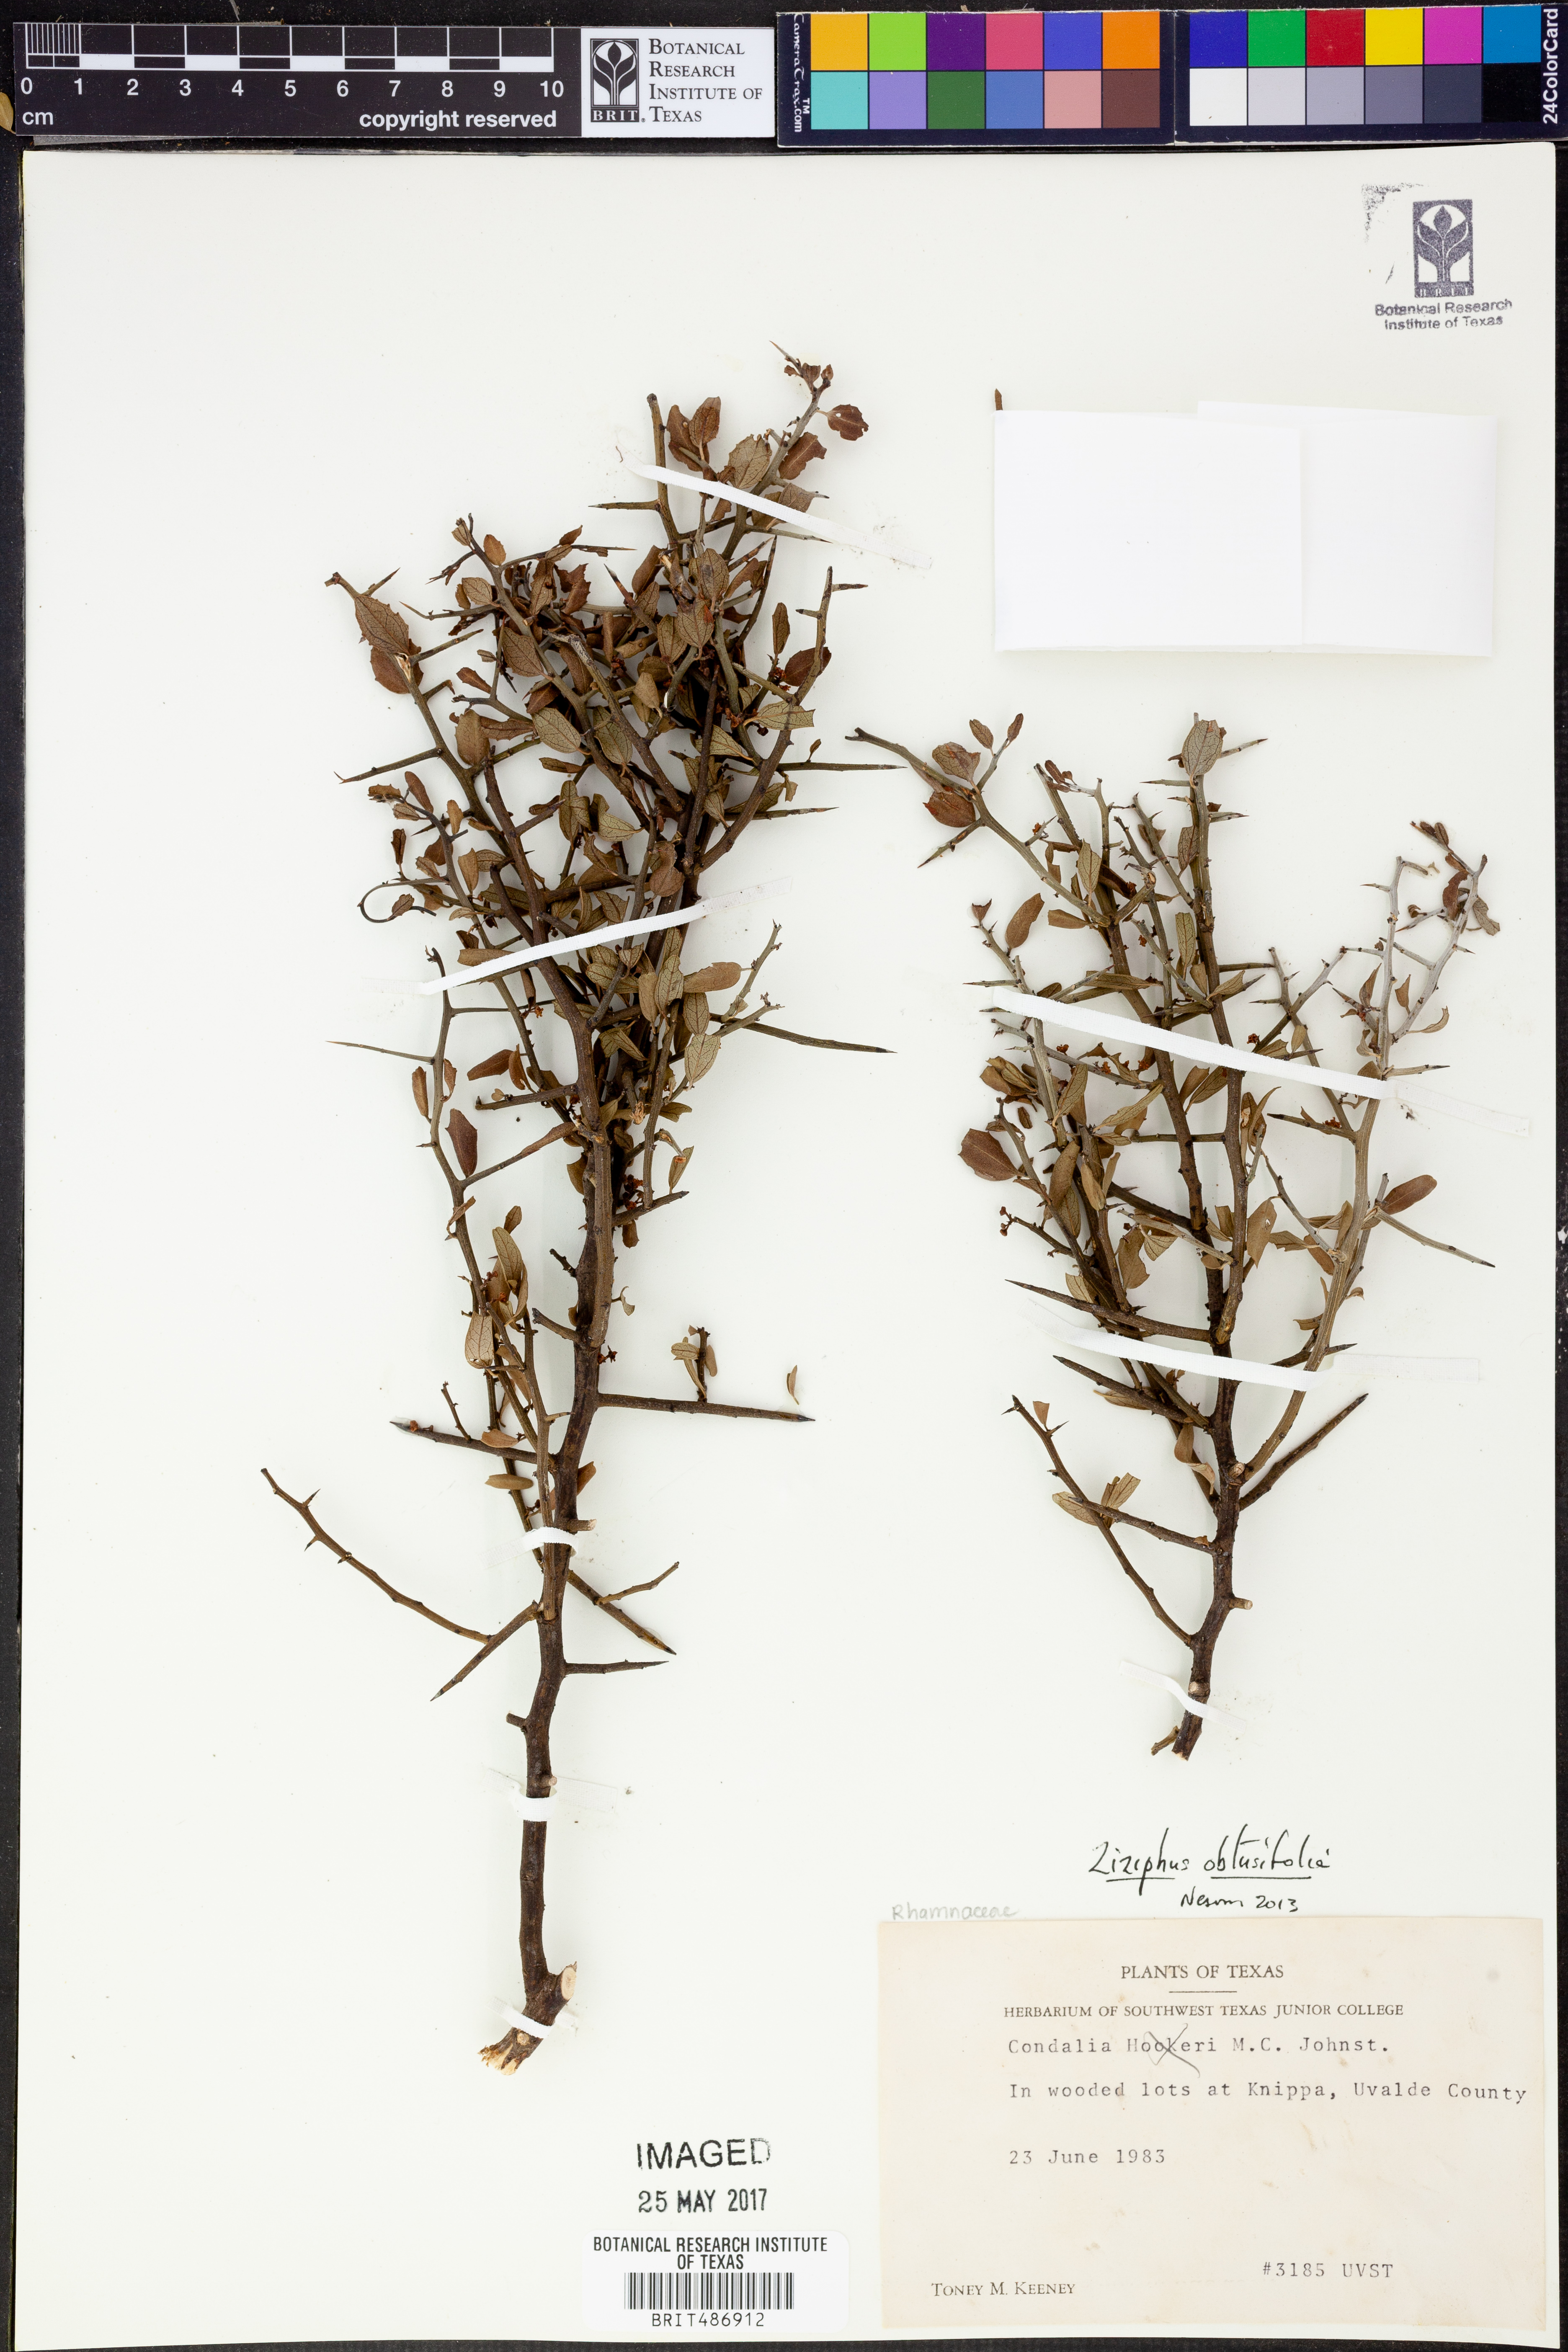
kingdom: Plantae
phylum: Tracheophyta
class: Magnoliopsida
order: Rosales
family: Rhamnaceae
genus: Sarcomphalus
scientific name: Sarcomphalus obtusifolius
